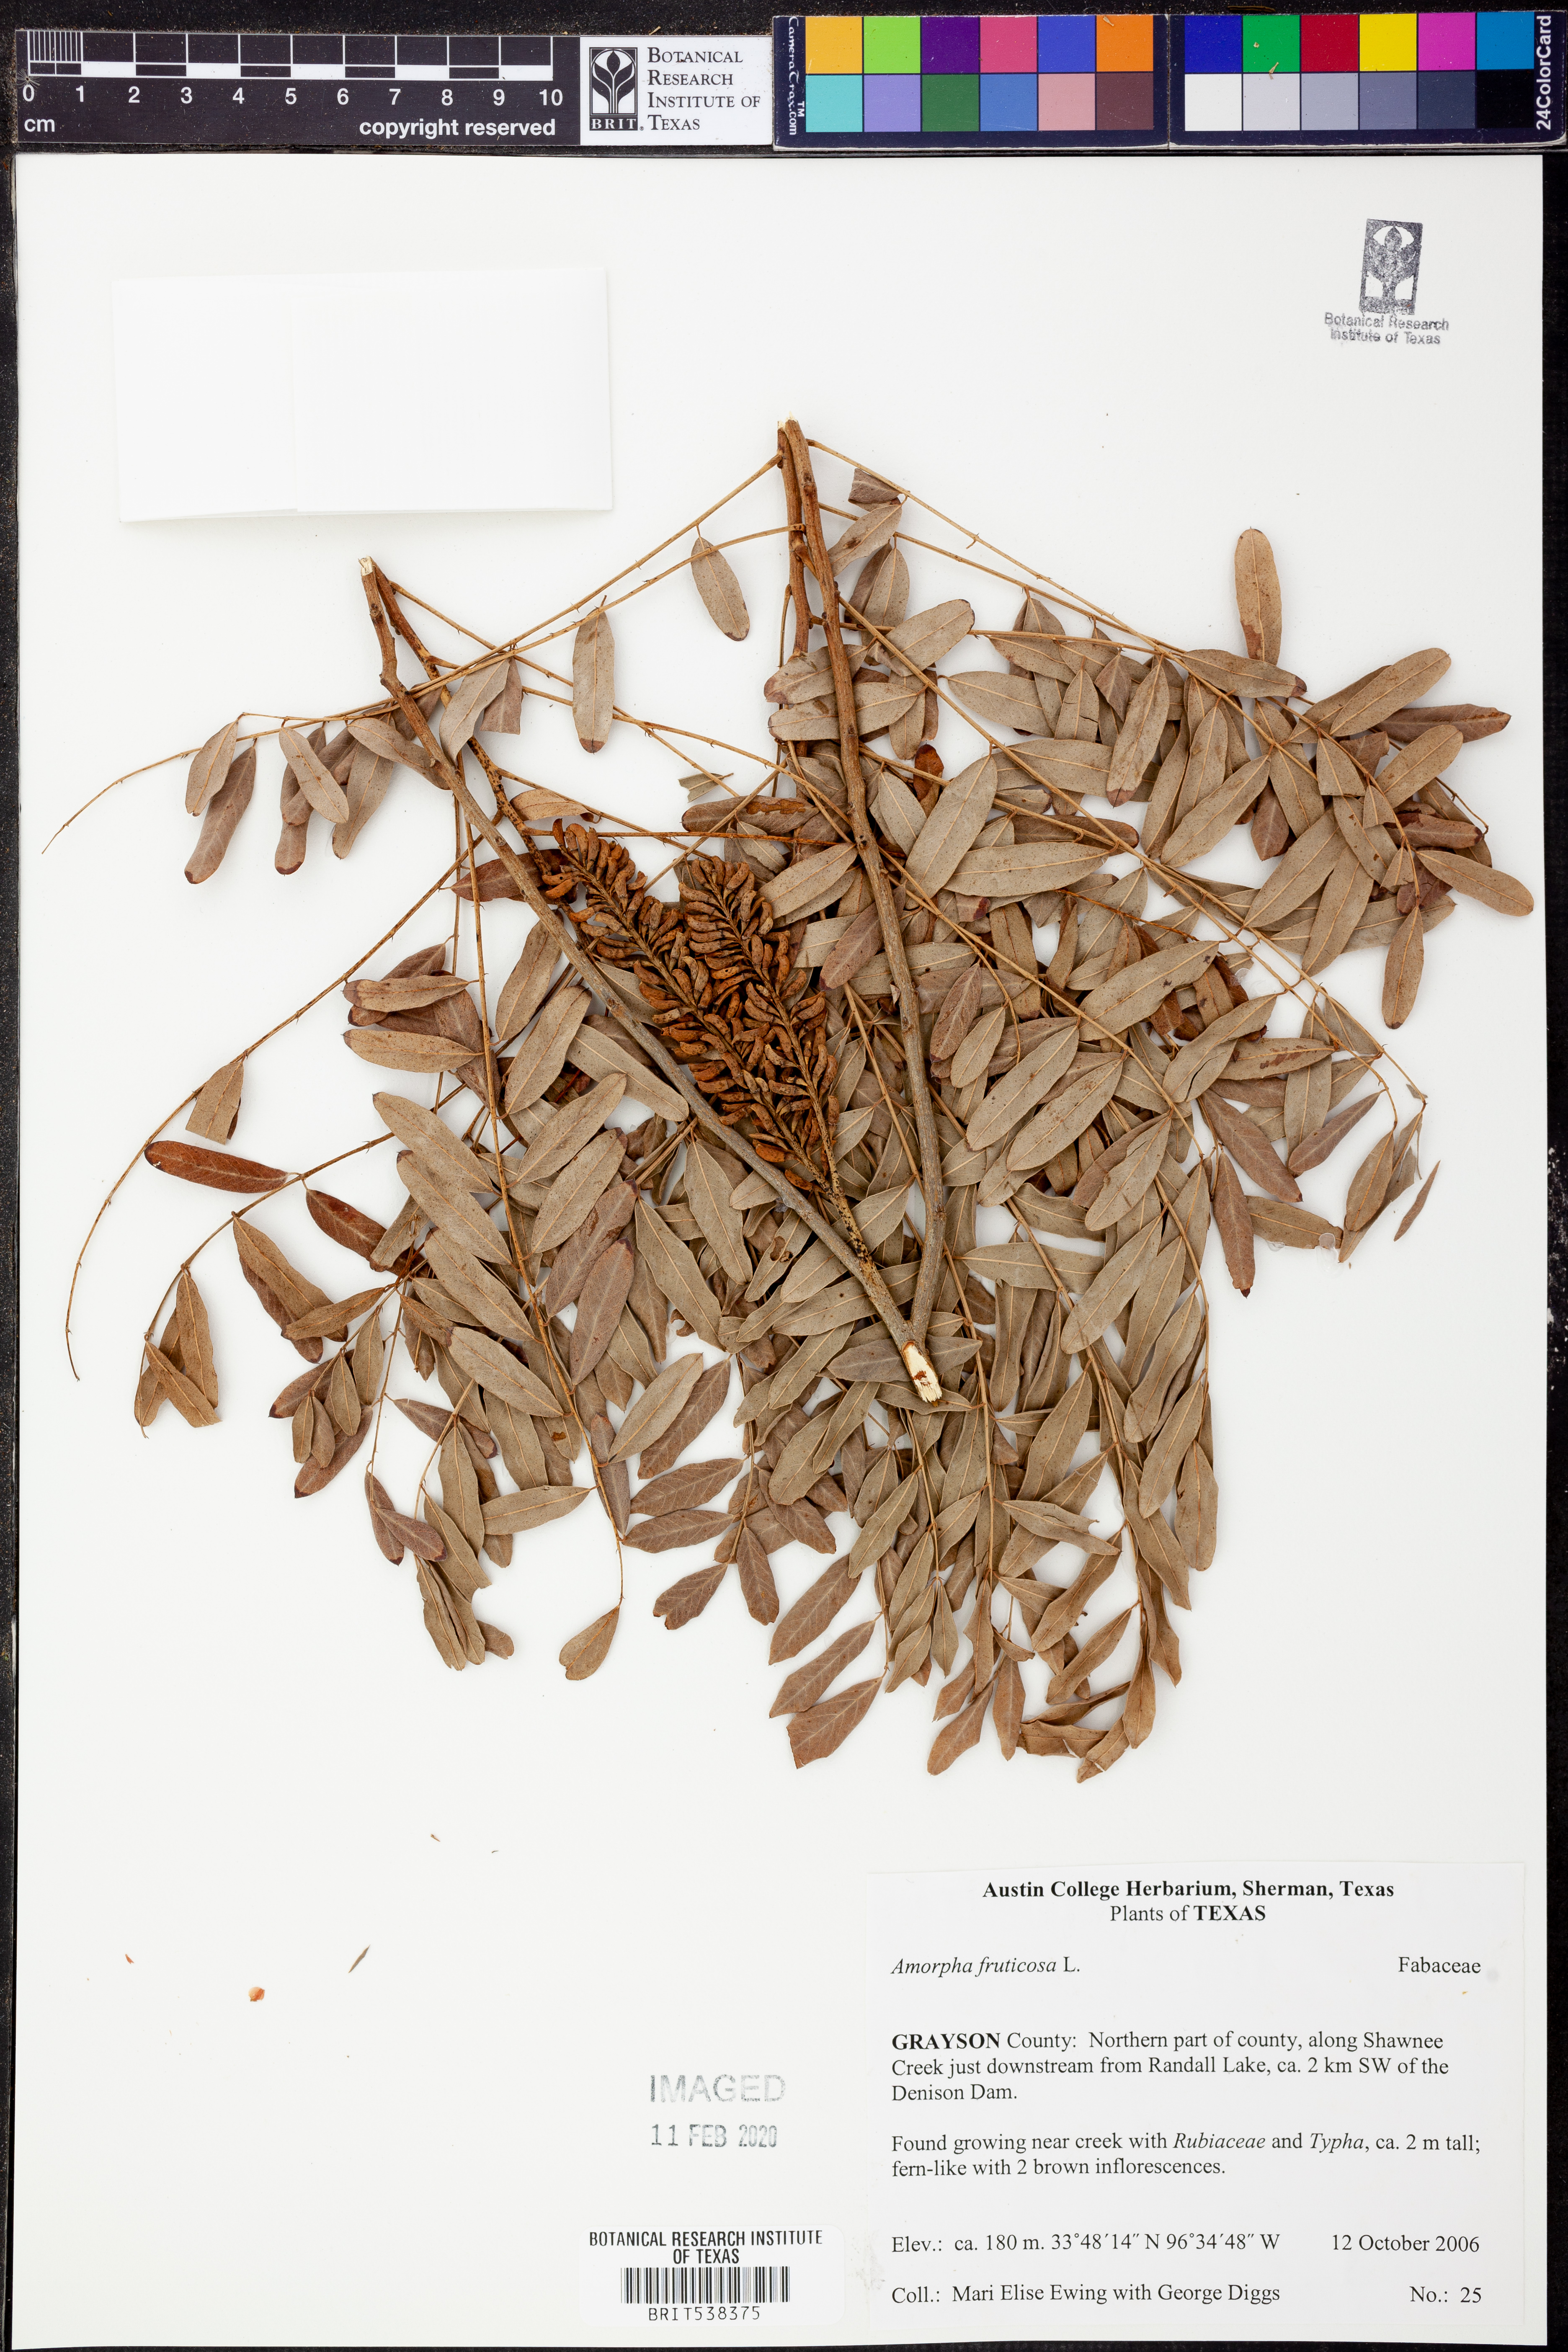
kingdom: Plantae
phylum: Tracheophyta
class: Magnoliopsida
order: Fabales
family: Fabaceae
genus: Amorpha
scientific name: Amorpha fruticosa
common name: False indigo
